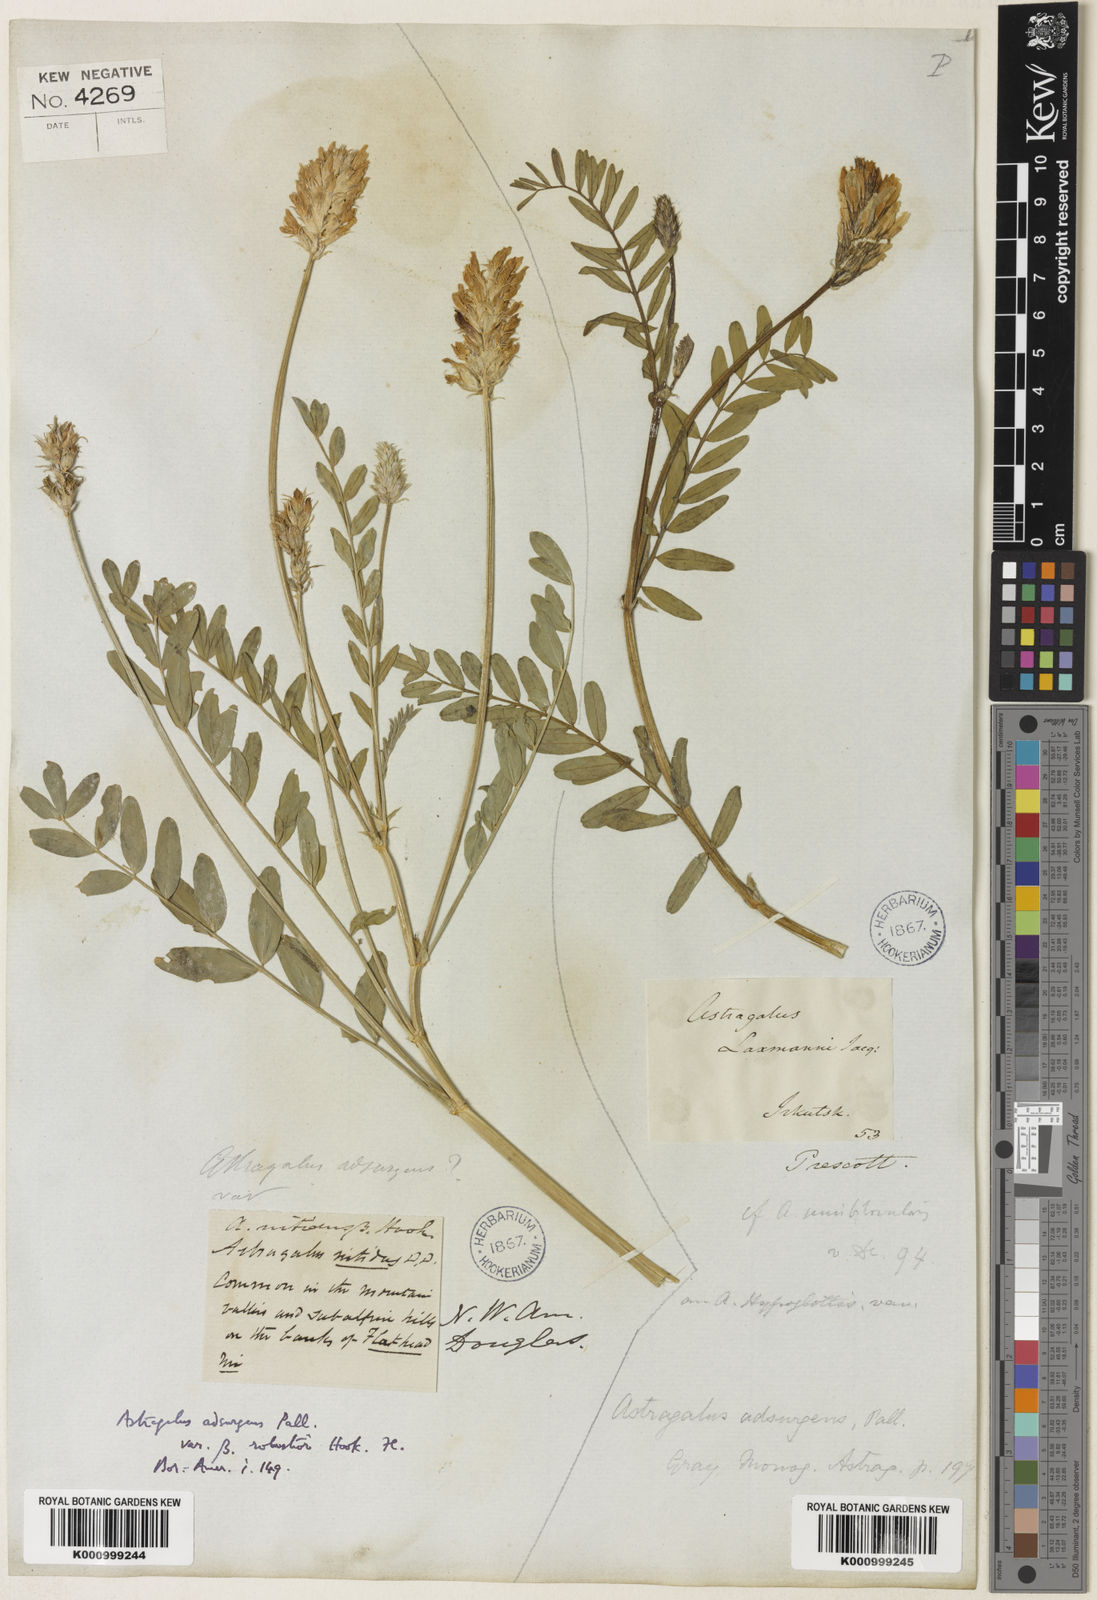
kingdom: Plantae
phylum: Tracheophyta
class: Magnoliopsida
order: Fabales
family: Fabaceae
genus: Astragalus
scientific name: Astragalus laxmannii
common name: Laxmann's milk-vetch
